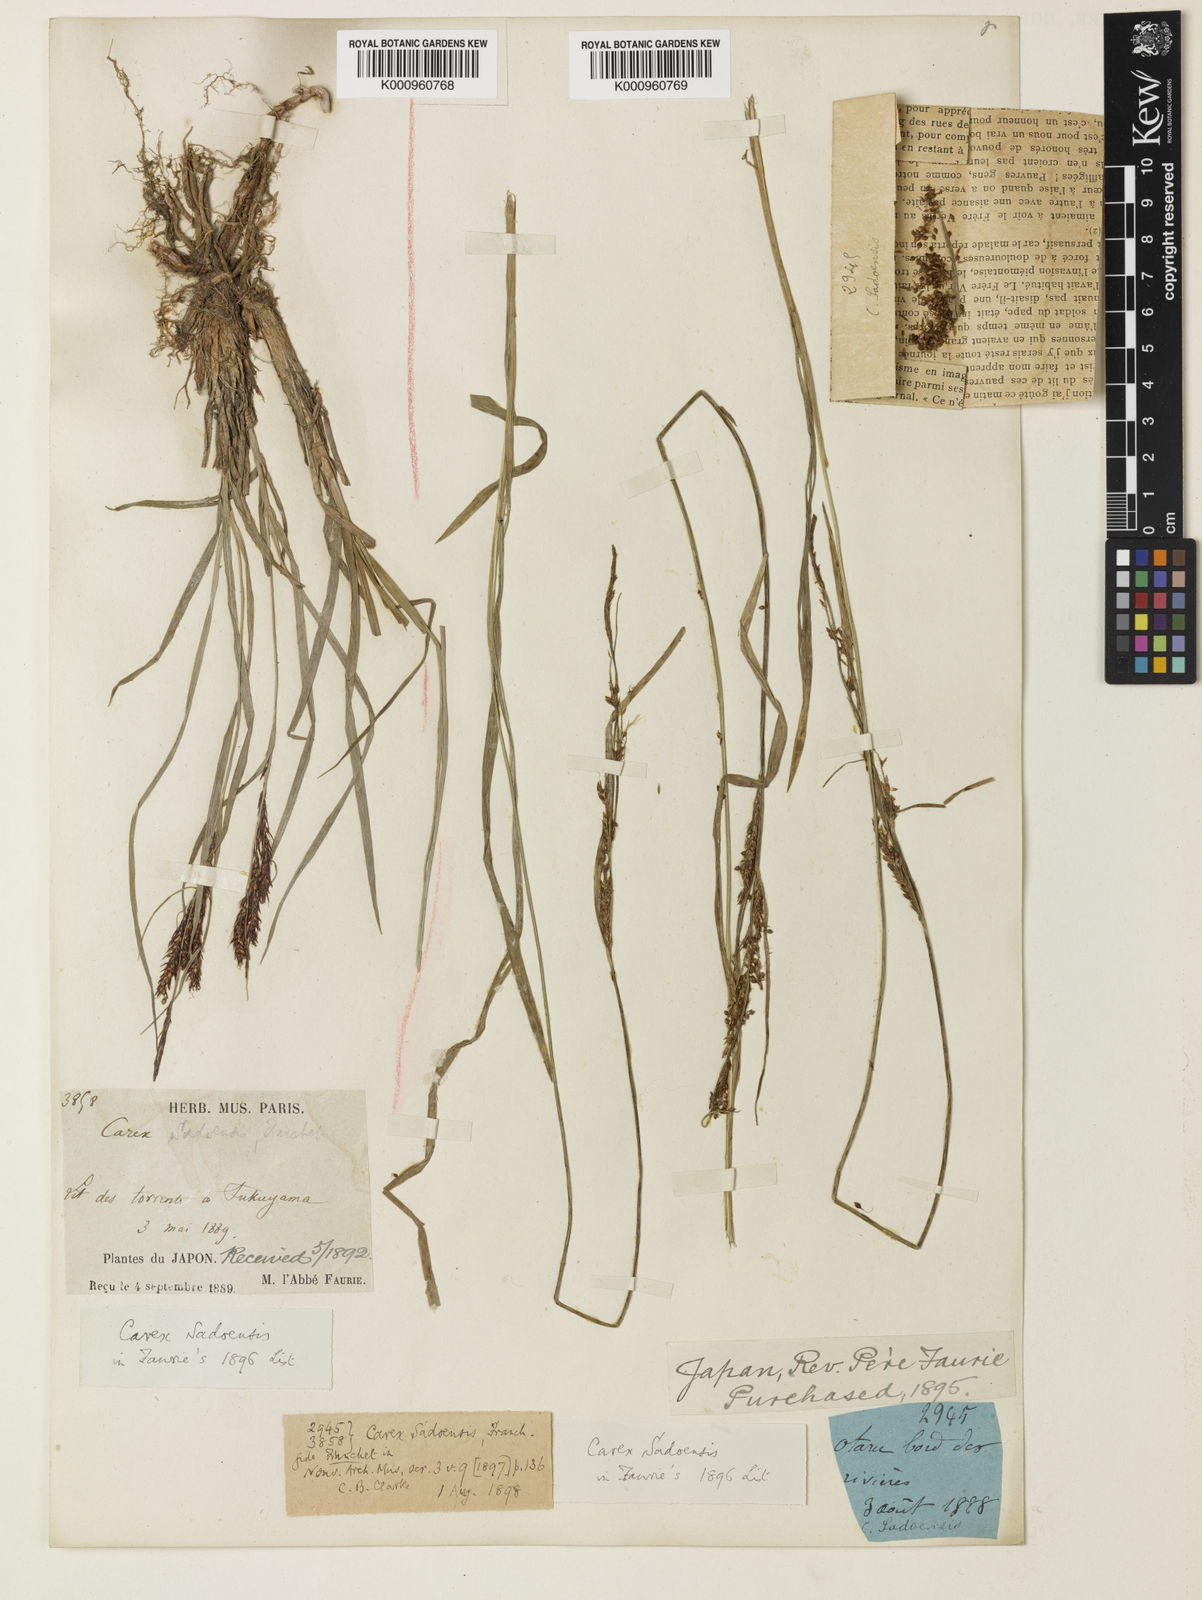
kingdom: Plantae
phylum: Tracheophyta
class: Liliopsida
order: Poales
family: Cyperaceae
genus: Carex
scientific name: Carex sadoensis
